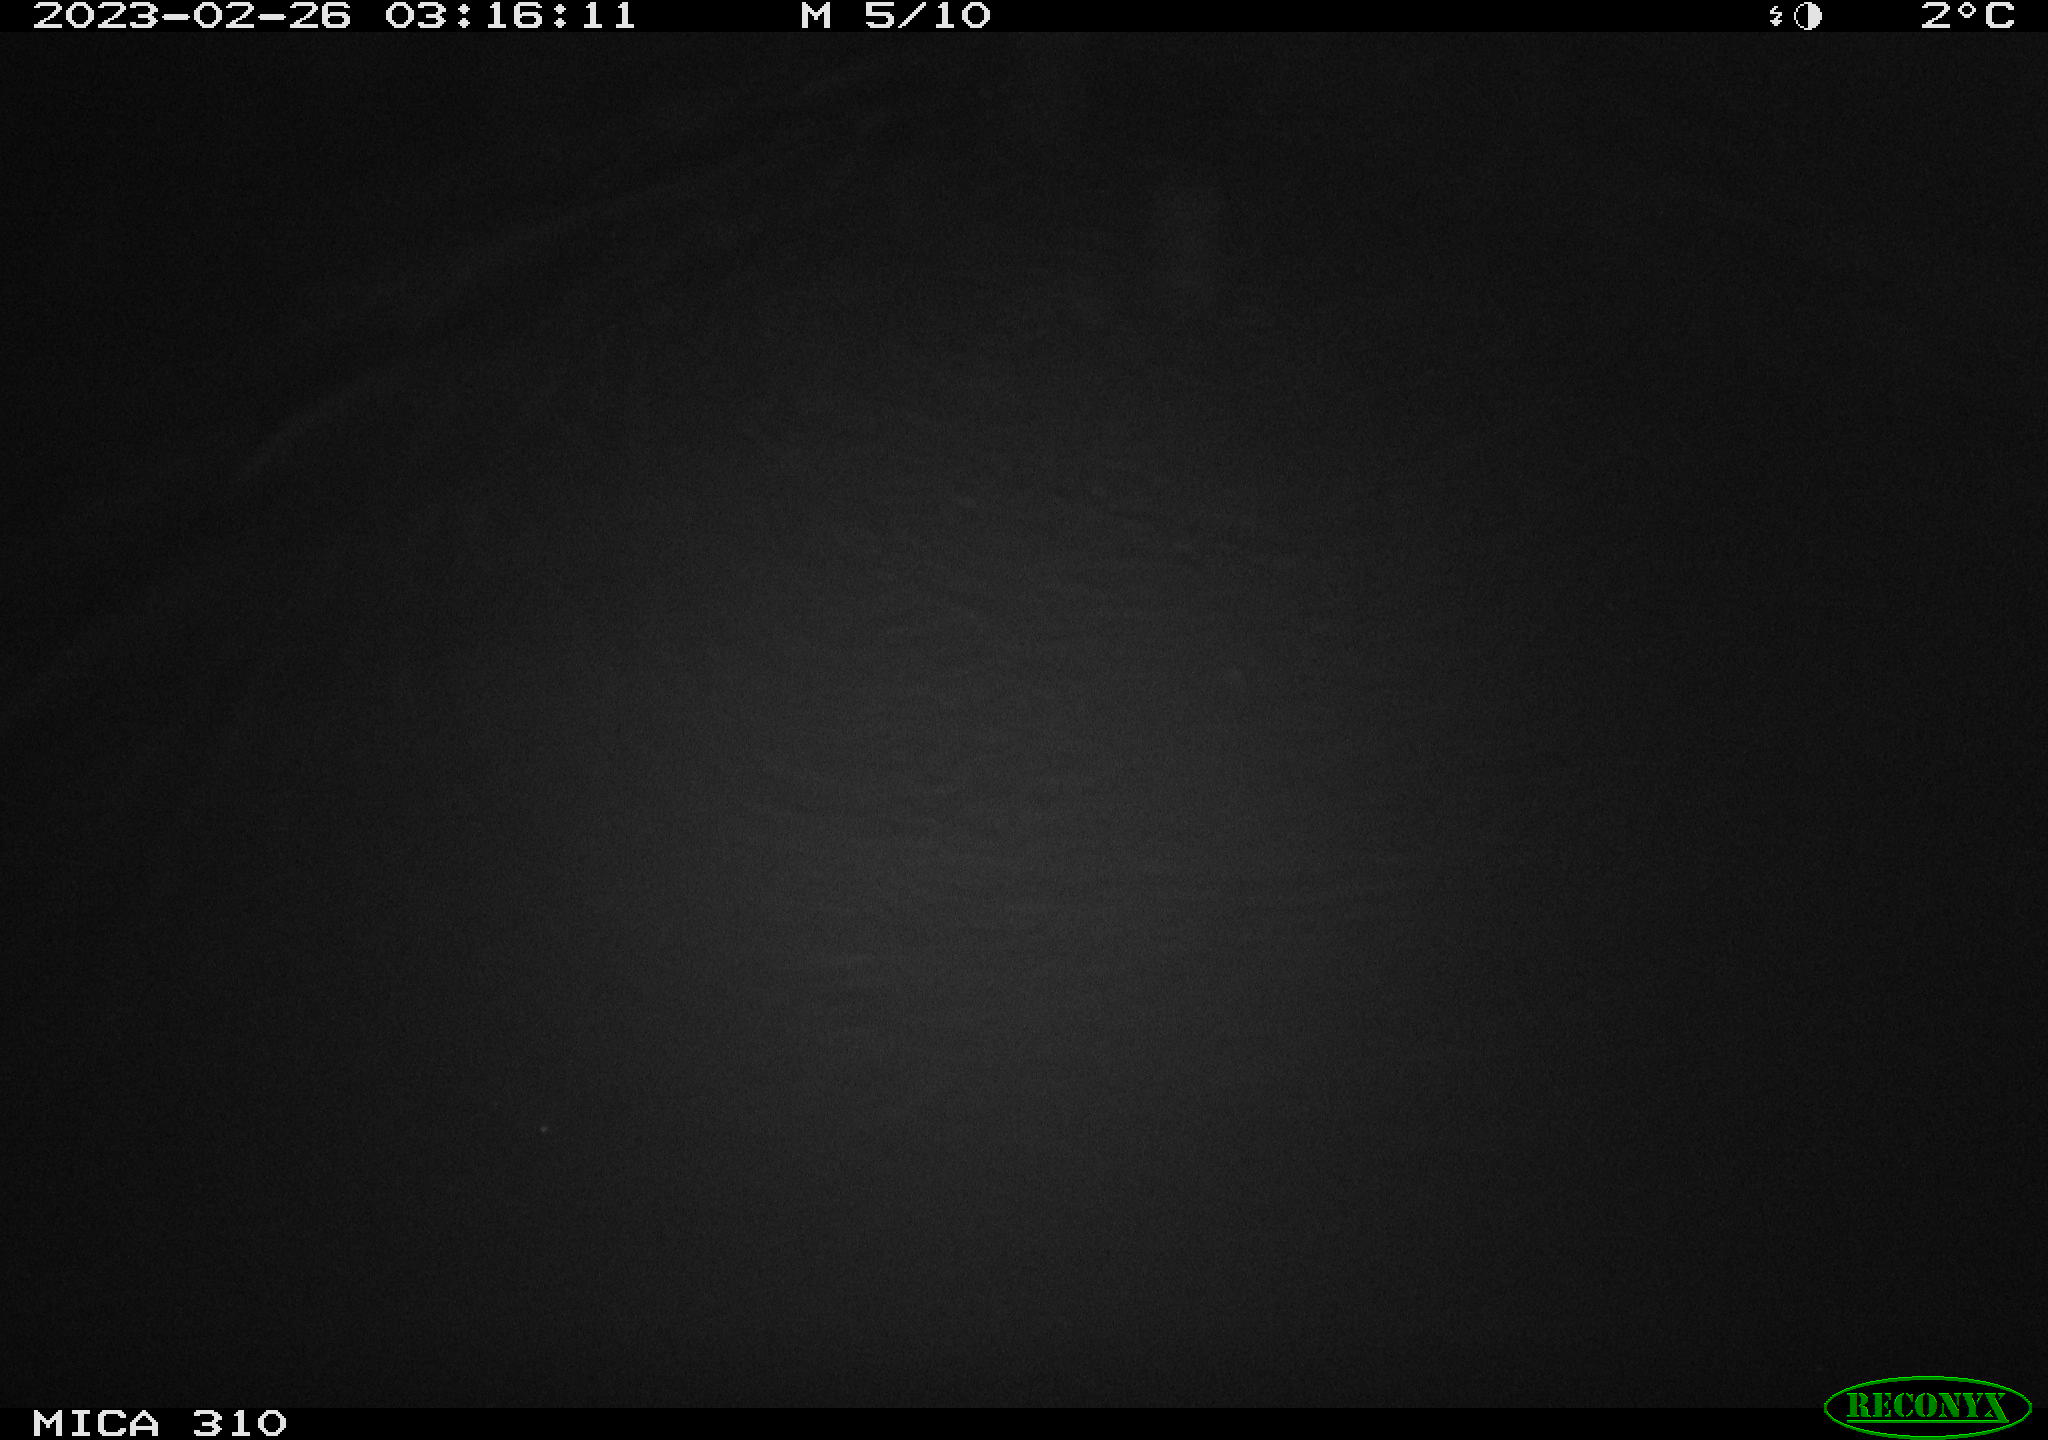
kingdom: Animalia
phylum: Chordata
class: Mammalia
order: Rodentia
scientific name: Rodentia
